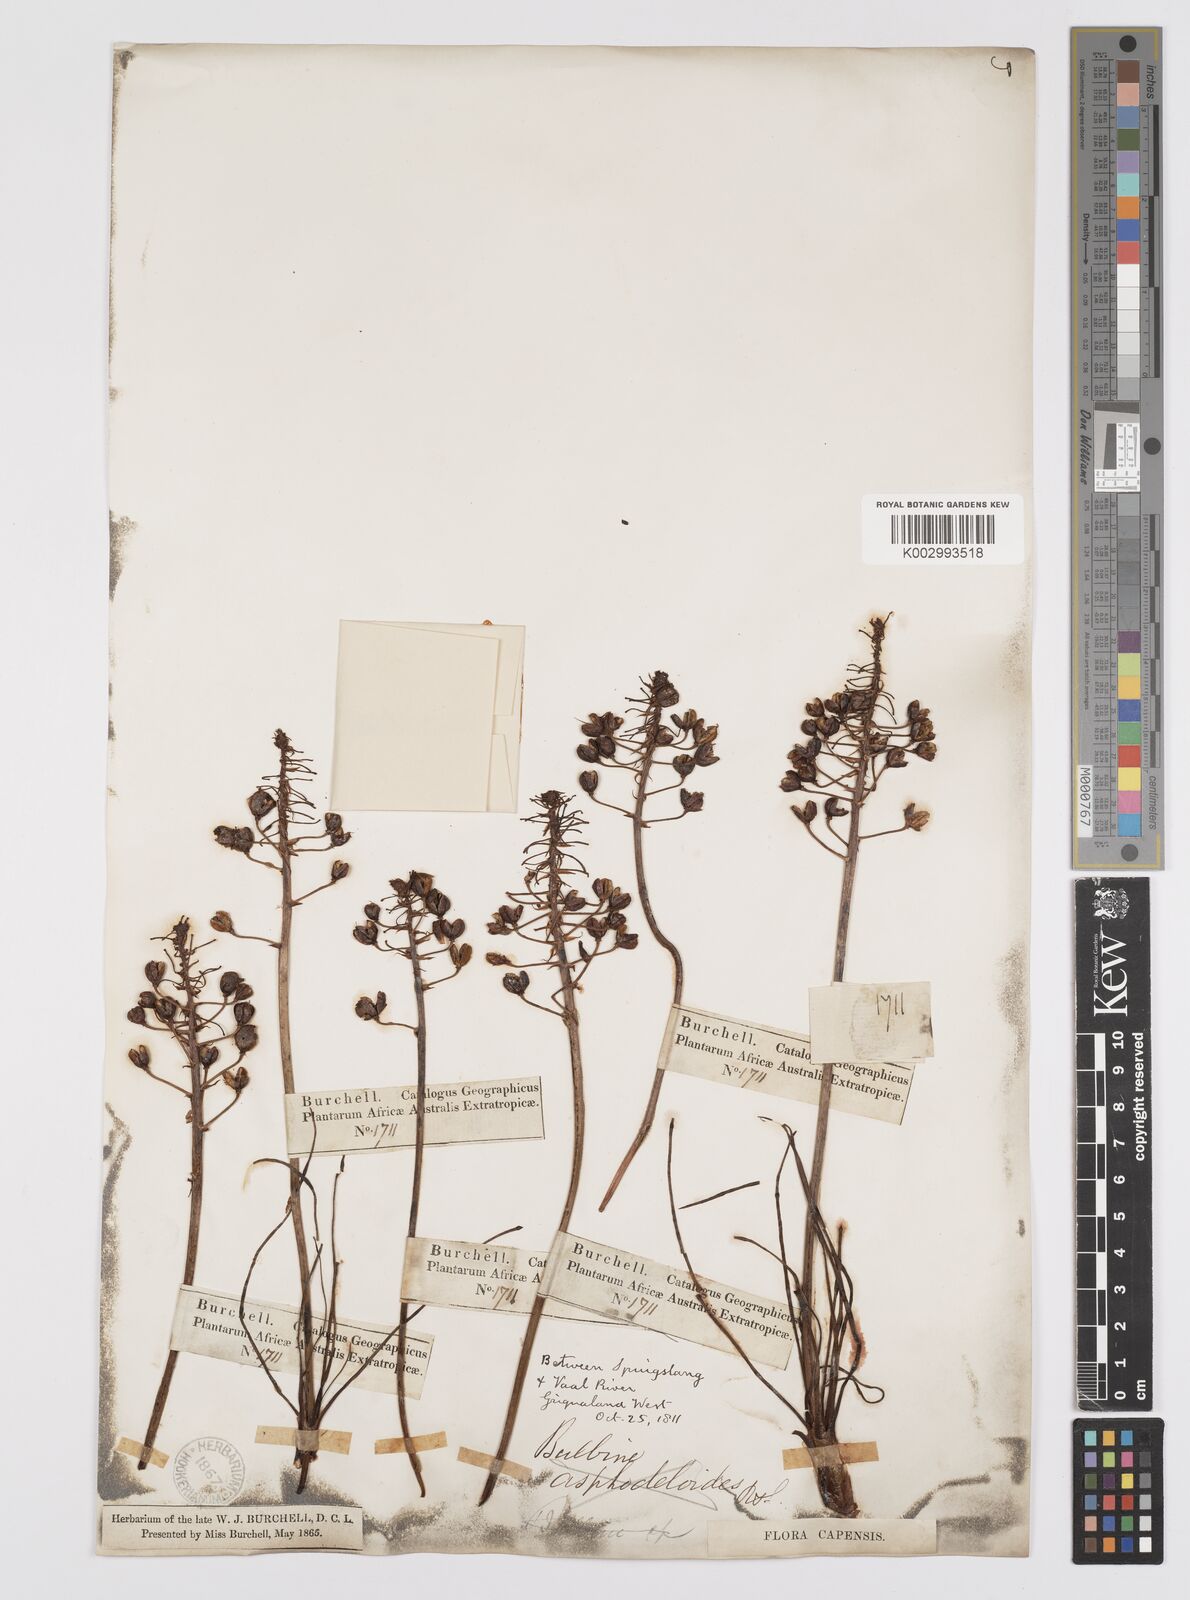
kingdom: Plantae
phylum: Tracheophyta
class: Liliopsida
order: Asparagales
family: Asphodelaceae
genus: Bulbine
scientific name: Bulbine asphodeloides
